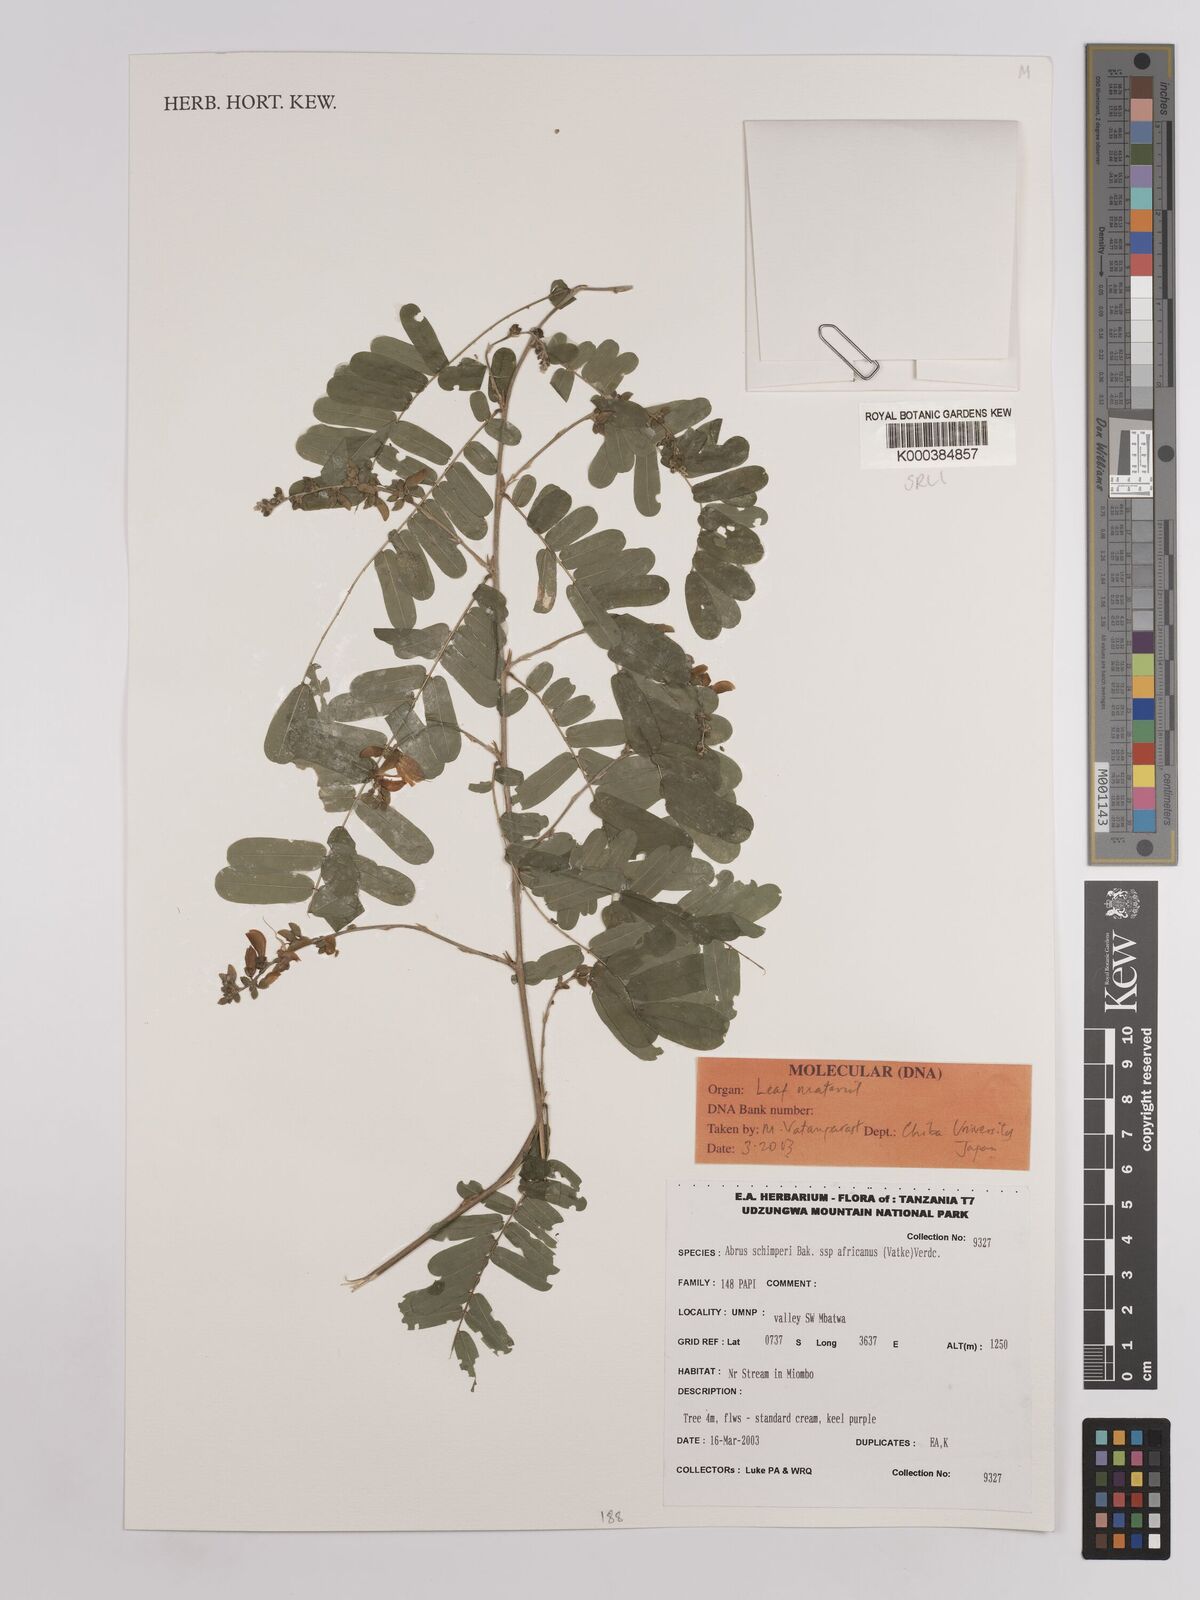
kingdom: Plantae
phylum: Tracheophyta
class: Magnoliopsida
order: Fabales
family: Fabaceae
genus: Abrus
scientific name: Abrus fruticulosus
